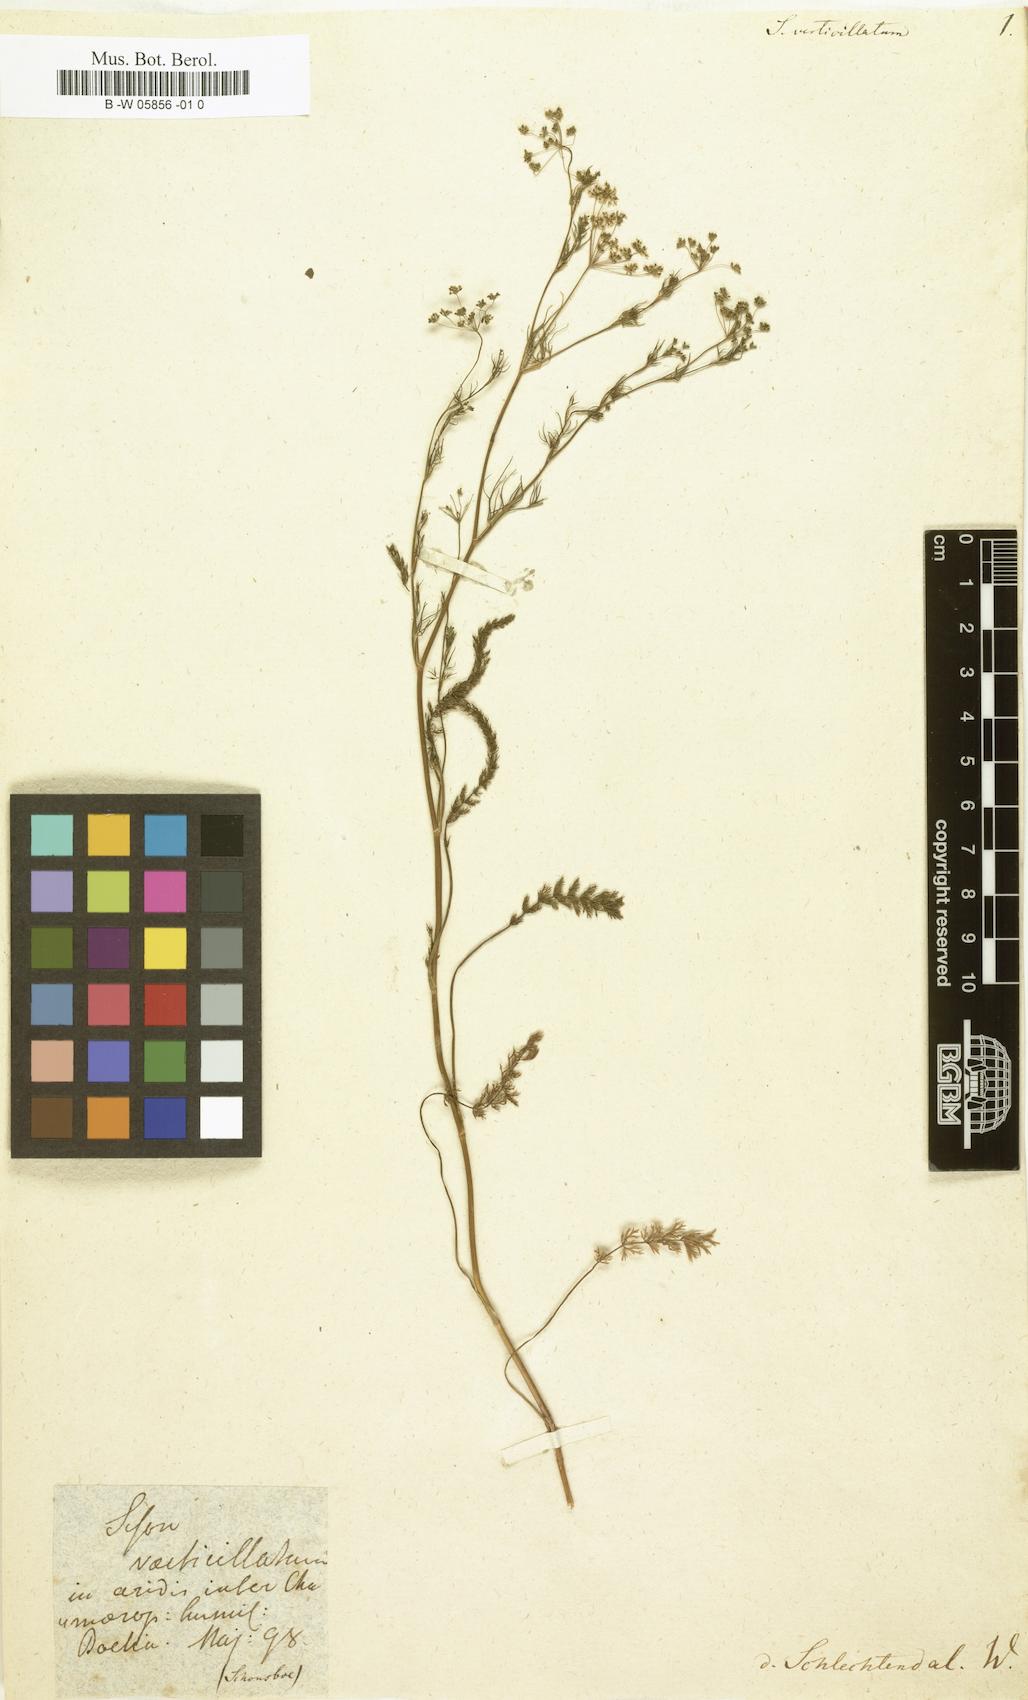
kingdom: Plantae
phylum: Tracheophyta
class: Magnoliopsida
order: Apiales
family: Apiaceae
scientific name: Apiaceae
